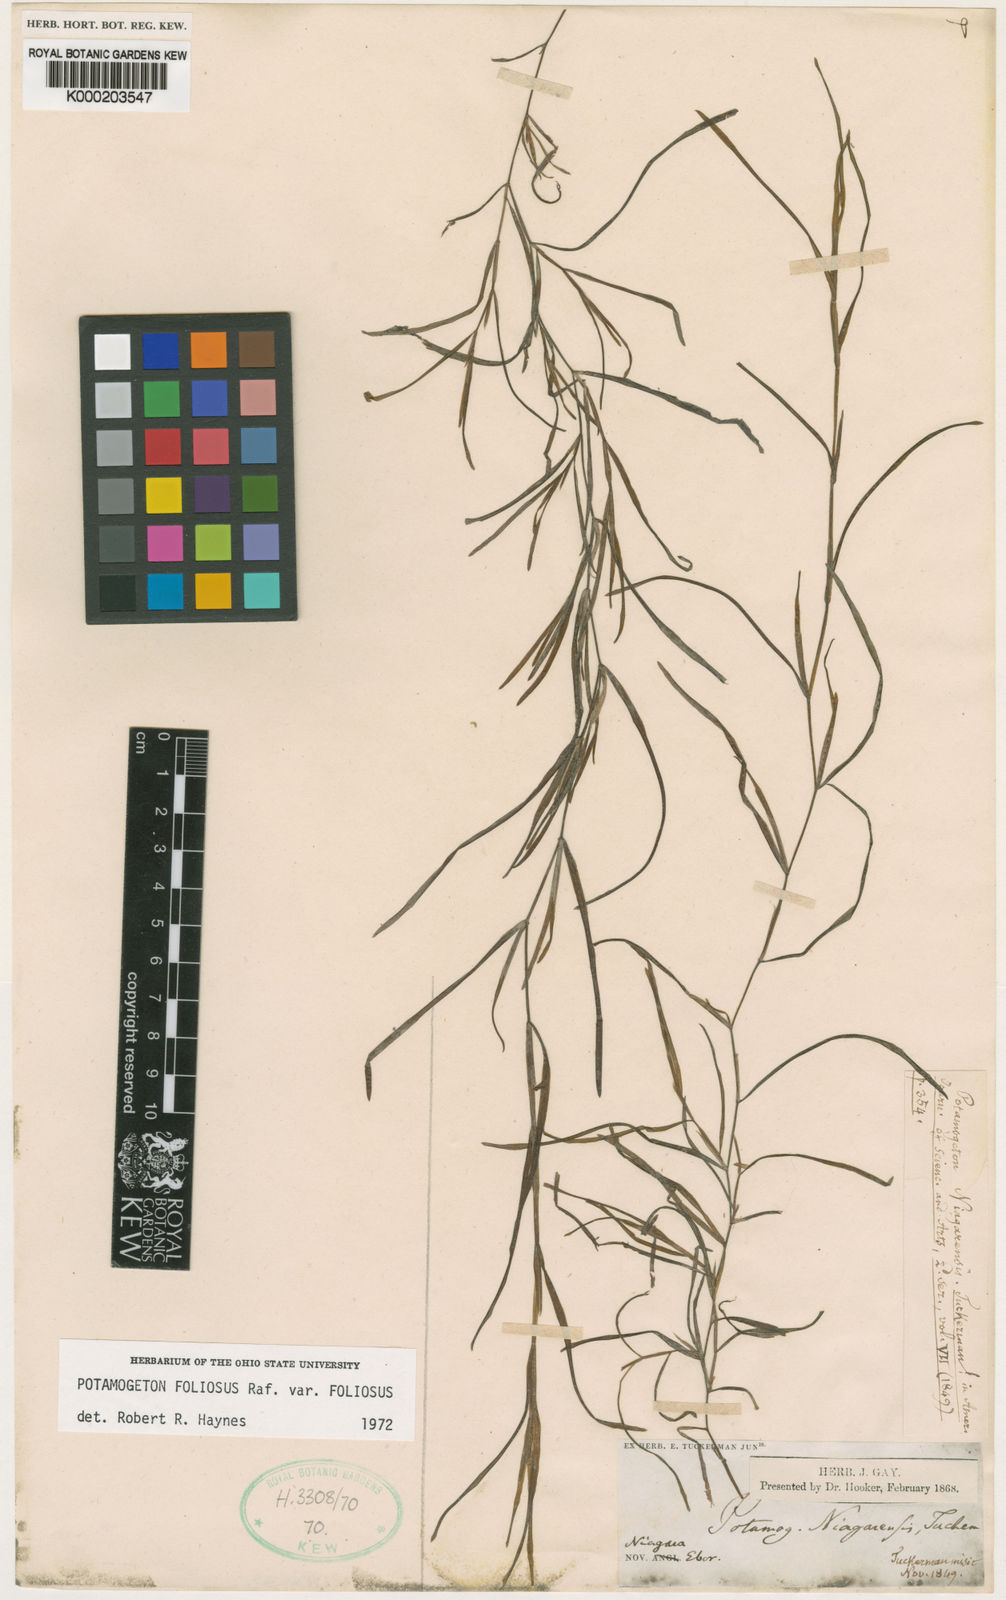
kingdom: Plantae
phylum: Tracheophyta
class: Liliopsida
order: Alismatales
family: Potamogetonaceae
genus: Potamogeton
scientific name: Potamogeton foliosus
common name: Leafy pondweed
